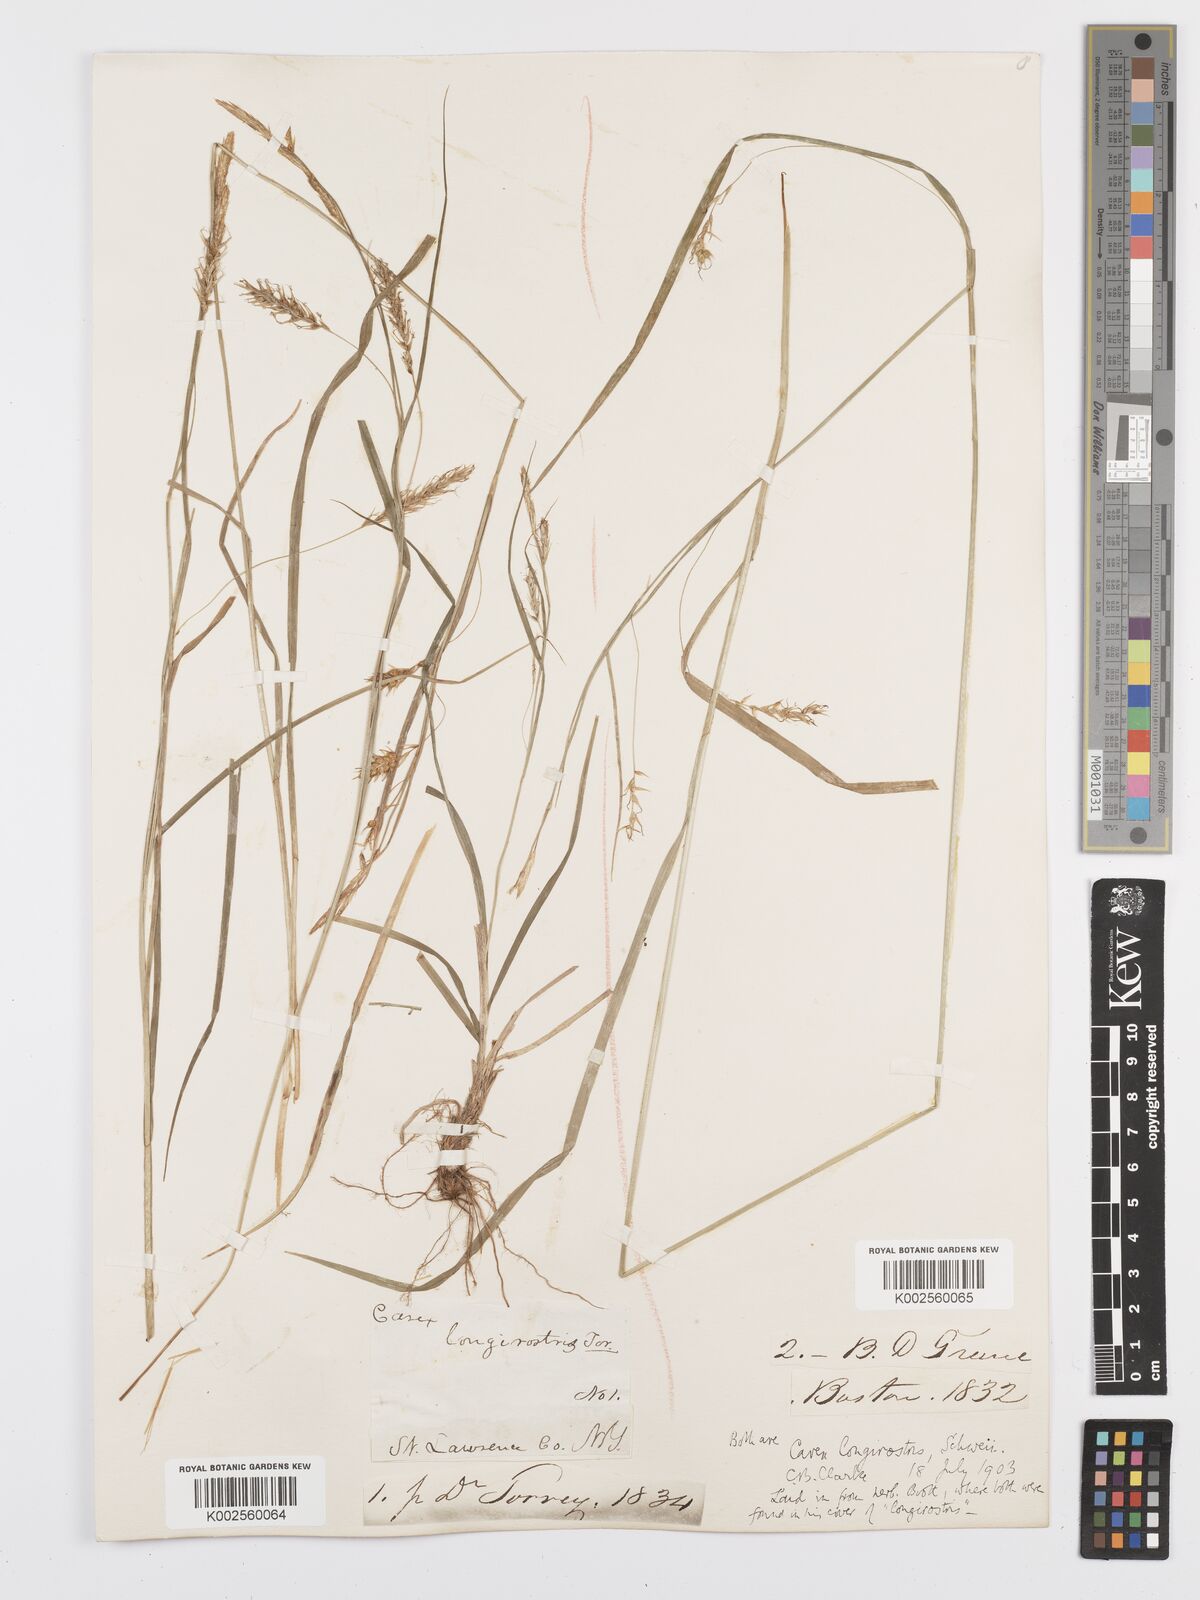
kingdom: Plantae
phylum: Tracheophyta
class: Liliopsida
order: Poales
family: Cyperaceae
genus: Carex
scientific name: Carex sprengelii
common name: Long-beaked sedge
